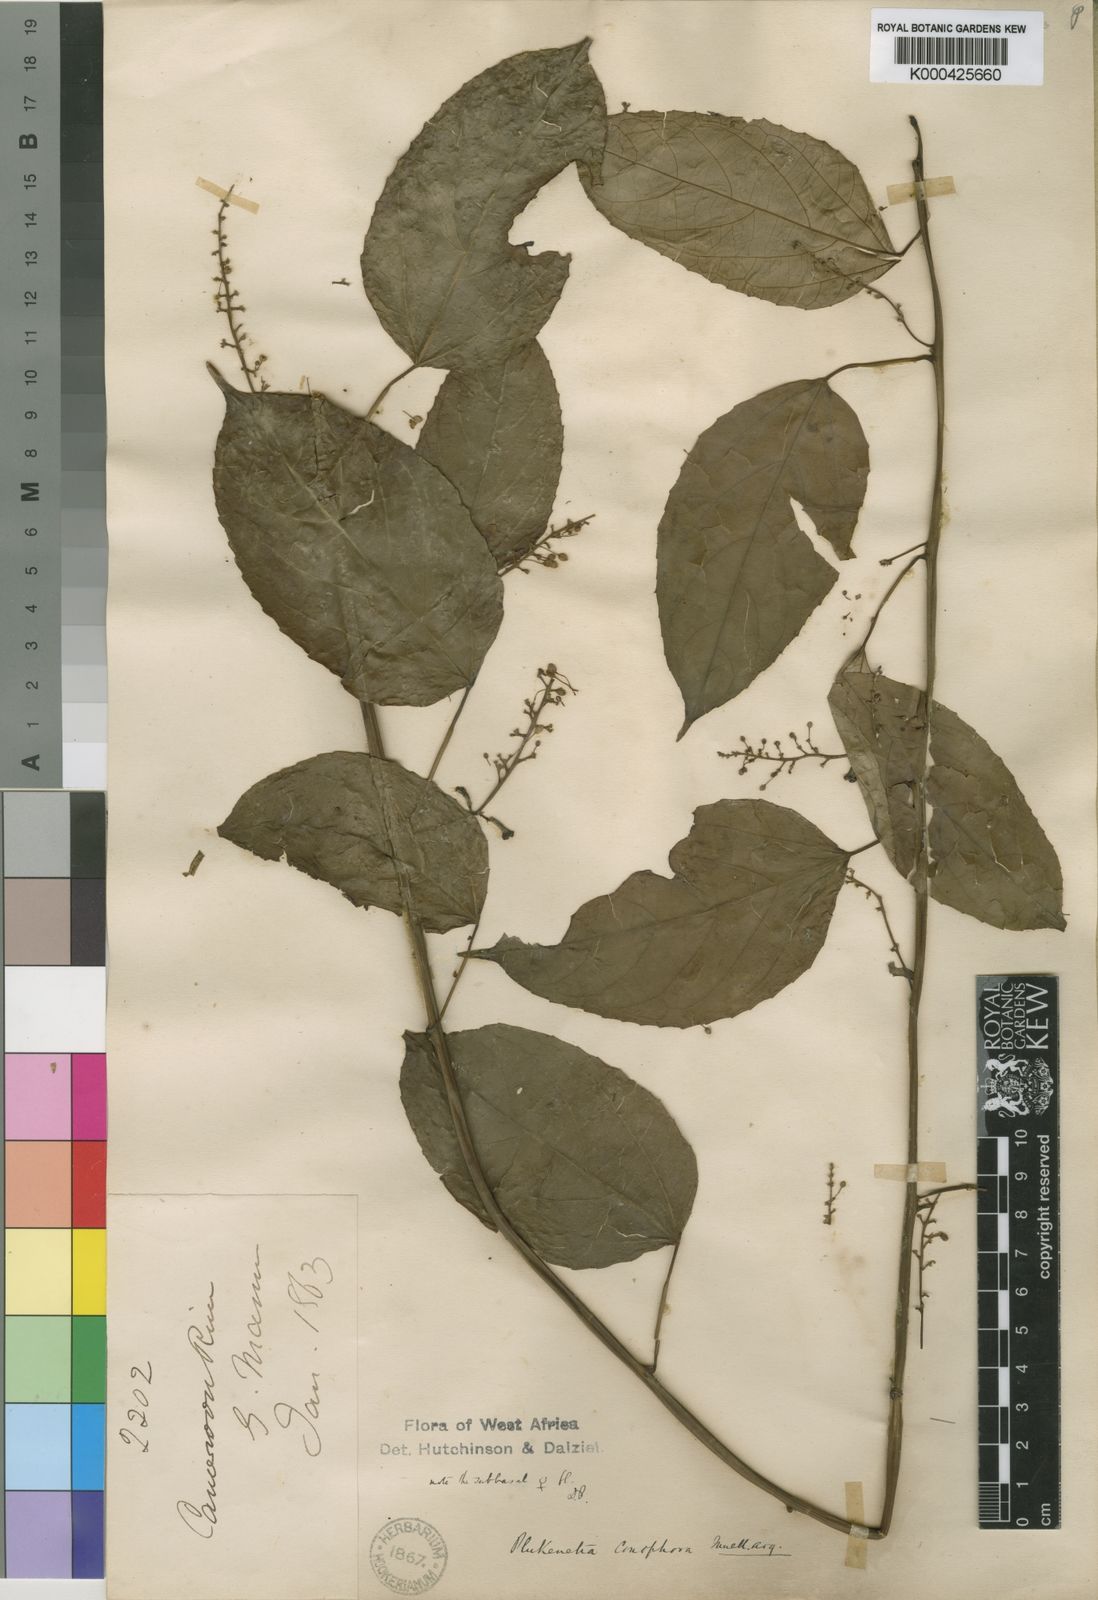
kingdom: Plantae
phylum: Tracheophyta
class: Magnoliopsida
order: Malpighiales
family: Euphorbiaceae
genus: Plukenetia
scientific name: Plukenetia
